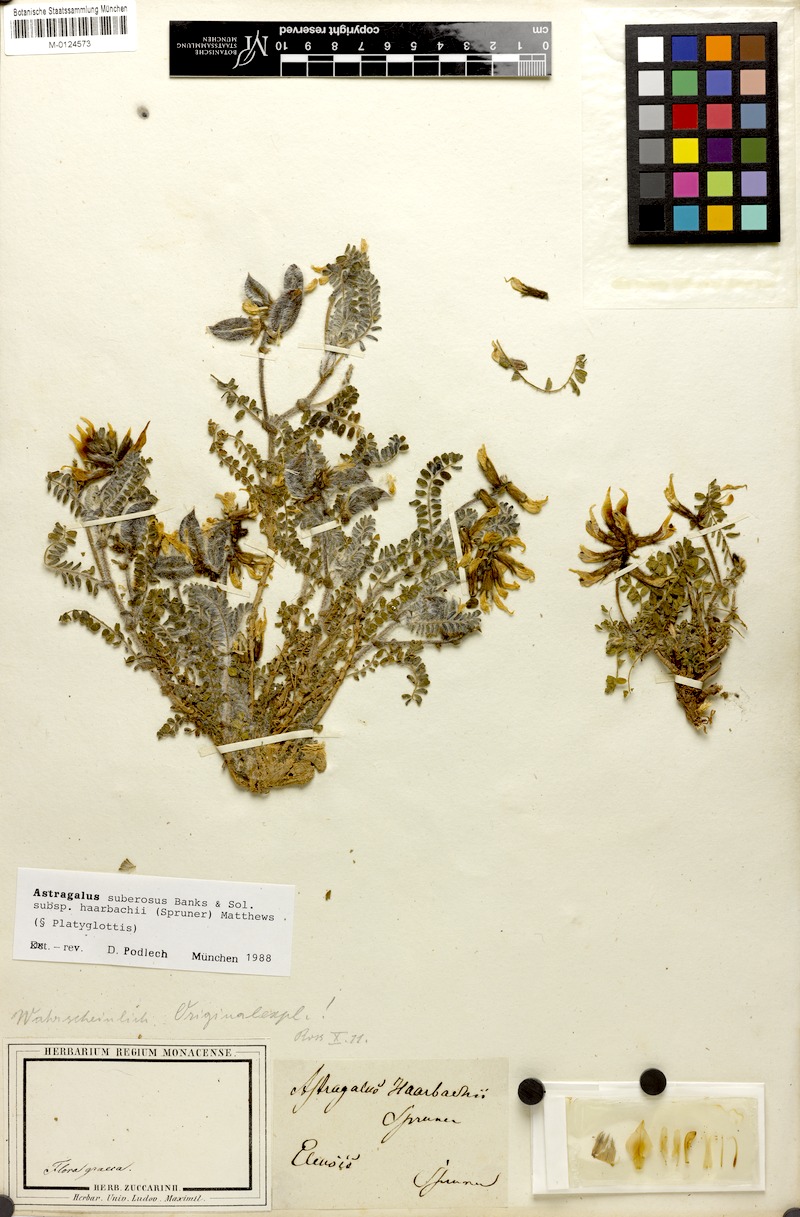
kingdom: Plantae
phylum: Tracheophyta
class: Magnoliopsida
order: Fabales
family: Fabaceae
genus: Astragalus
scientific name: Astragalus suberosus
